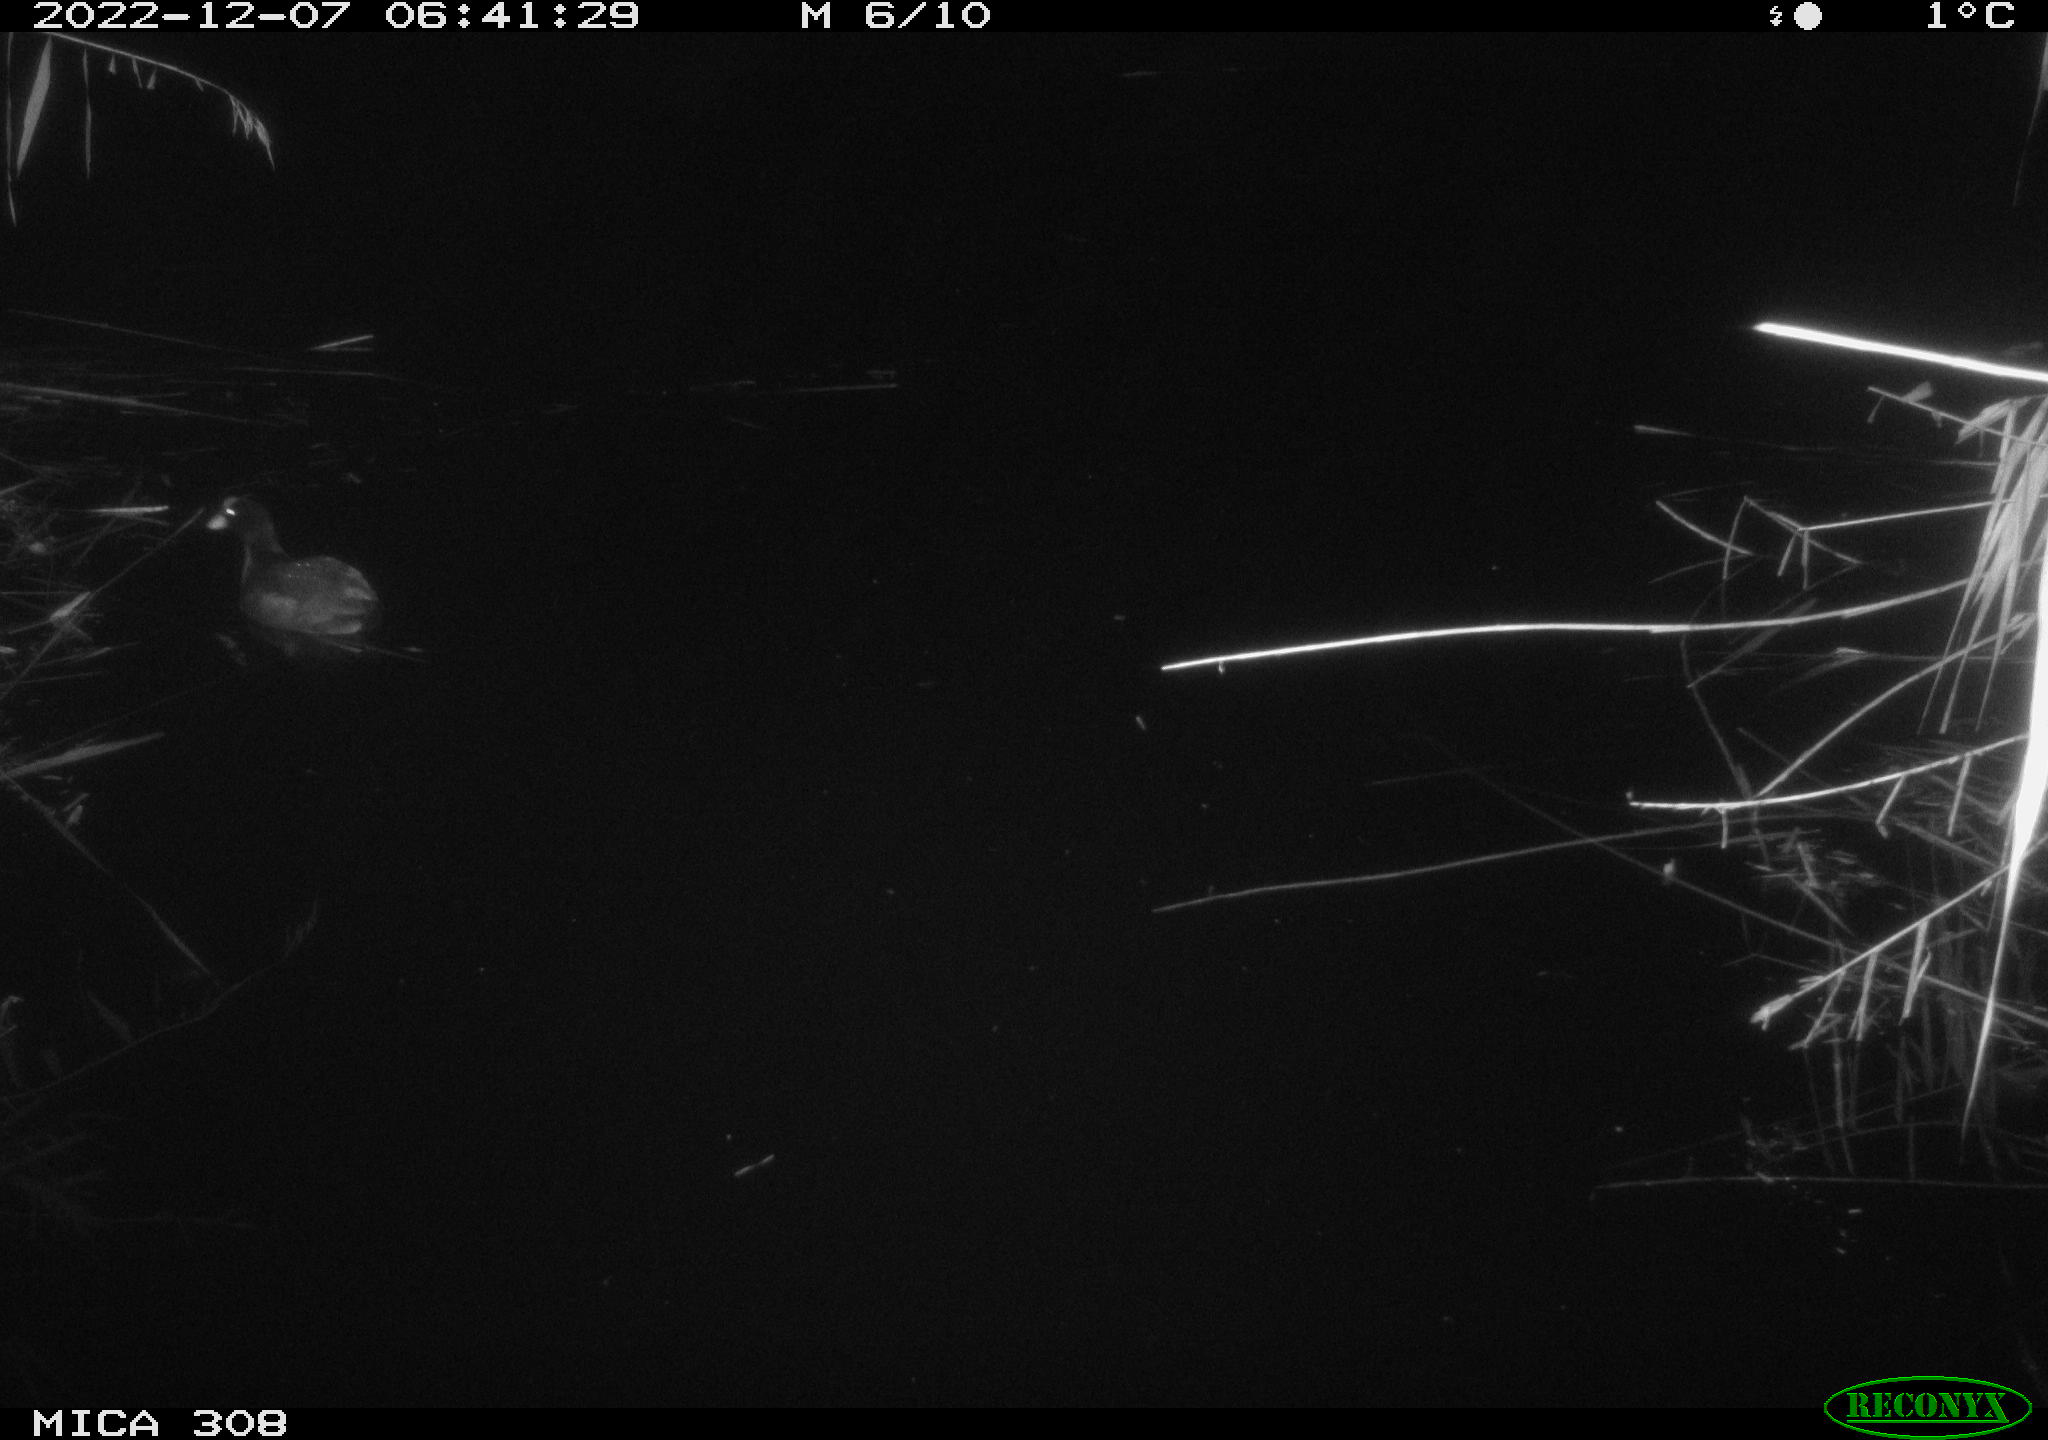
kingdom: Animalia
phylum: Chordata
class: Aves
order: Gruiformes
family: Rallidae
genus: Gallinula
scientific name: Gallinula chloropus
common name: Common moorhen
